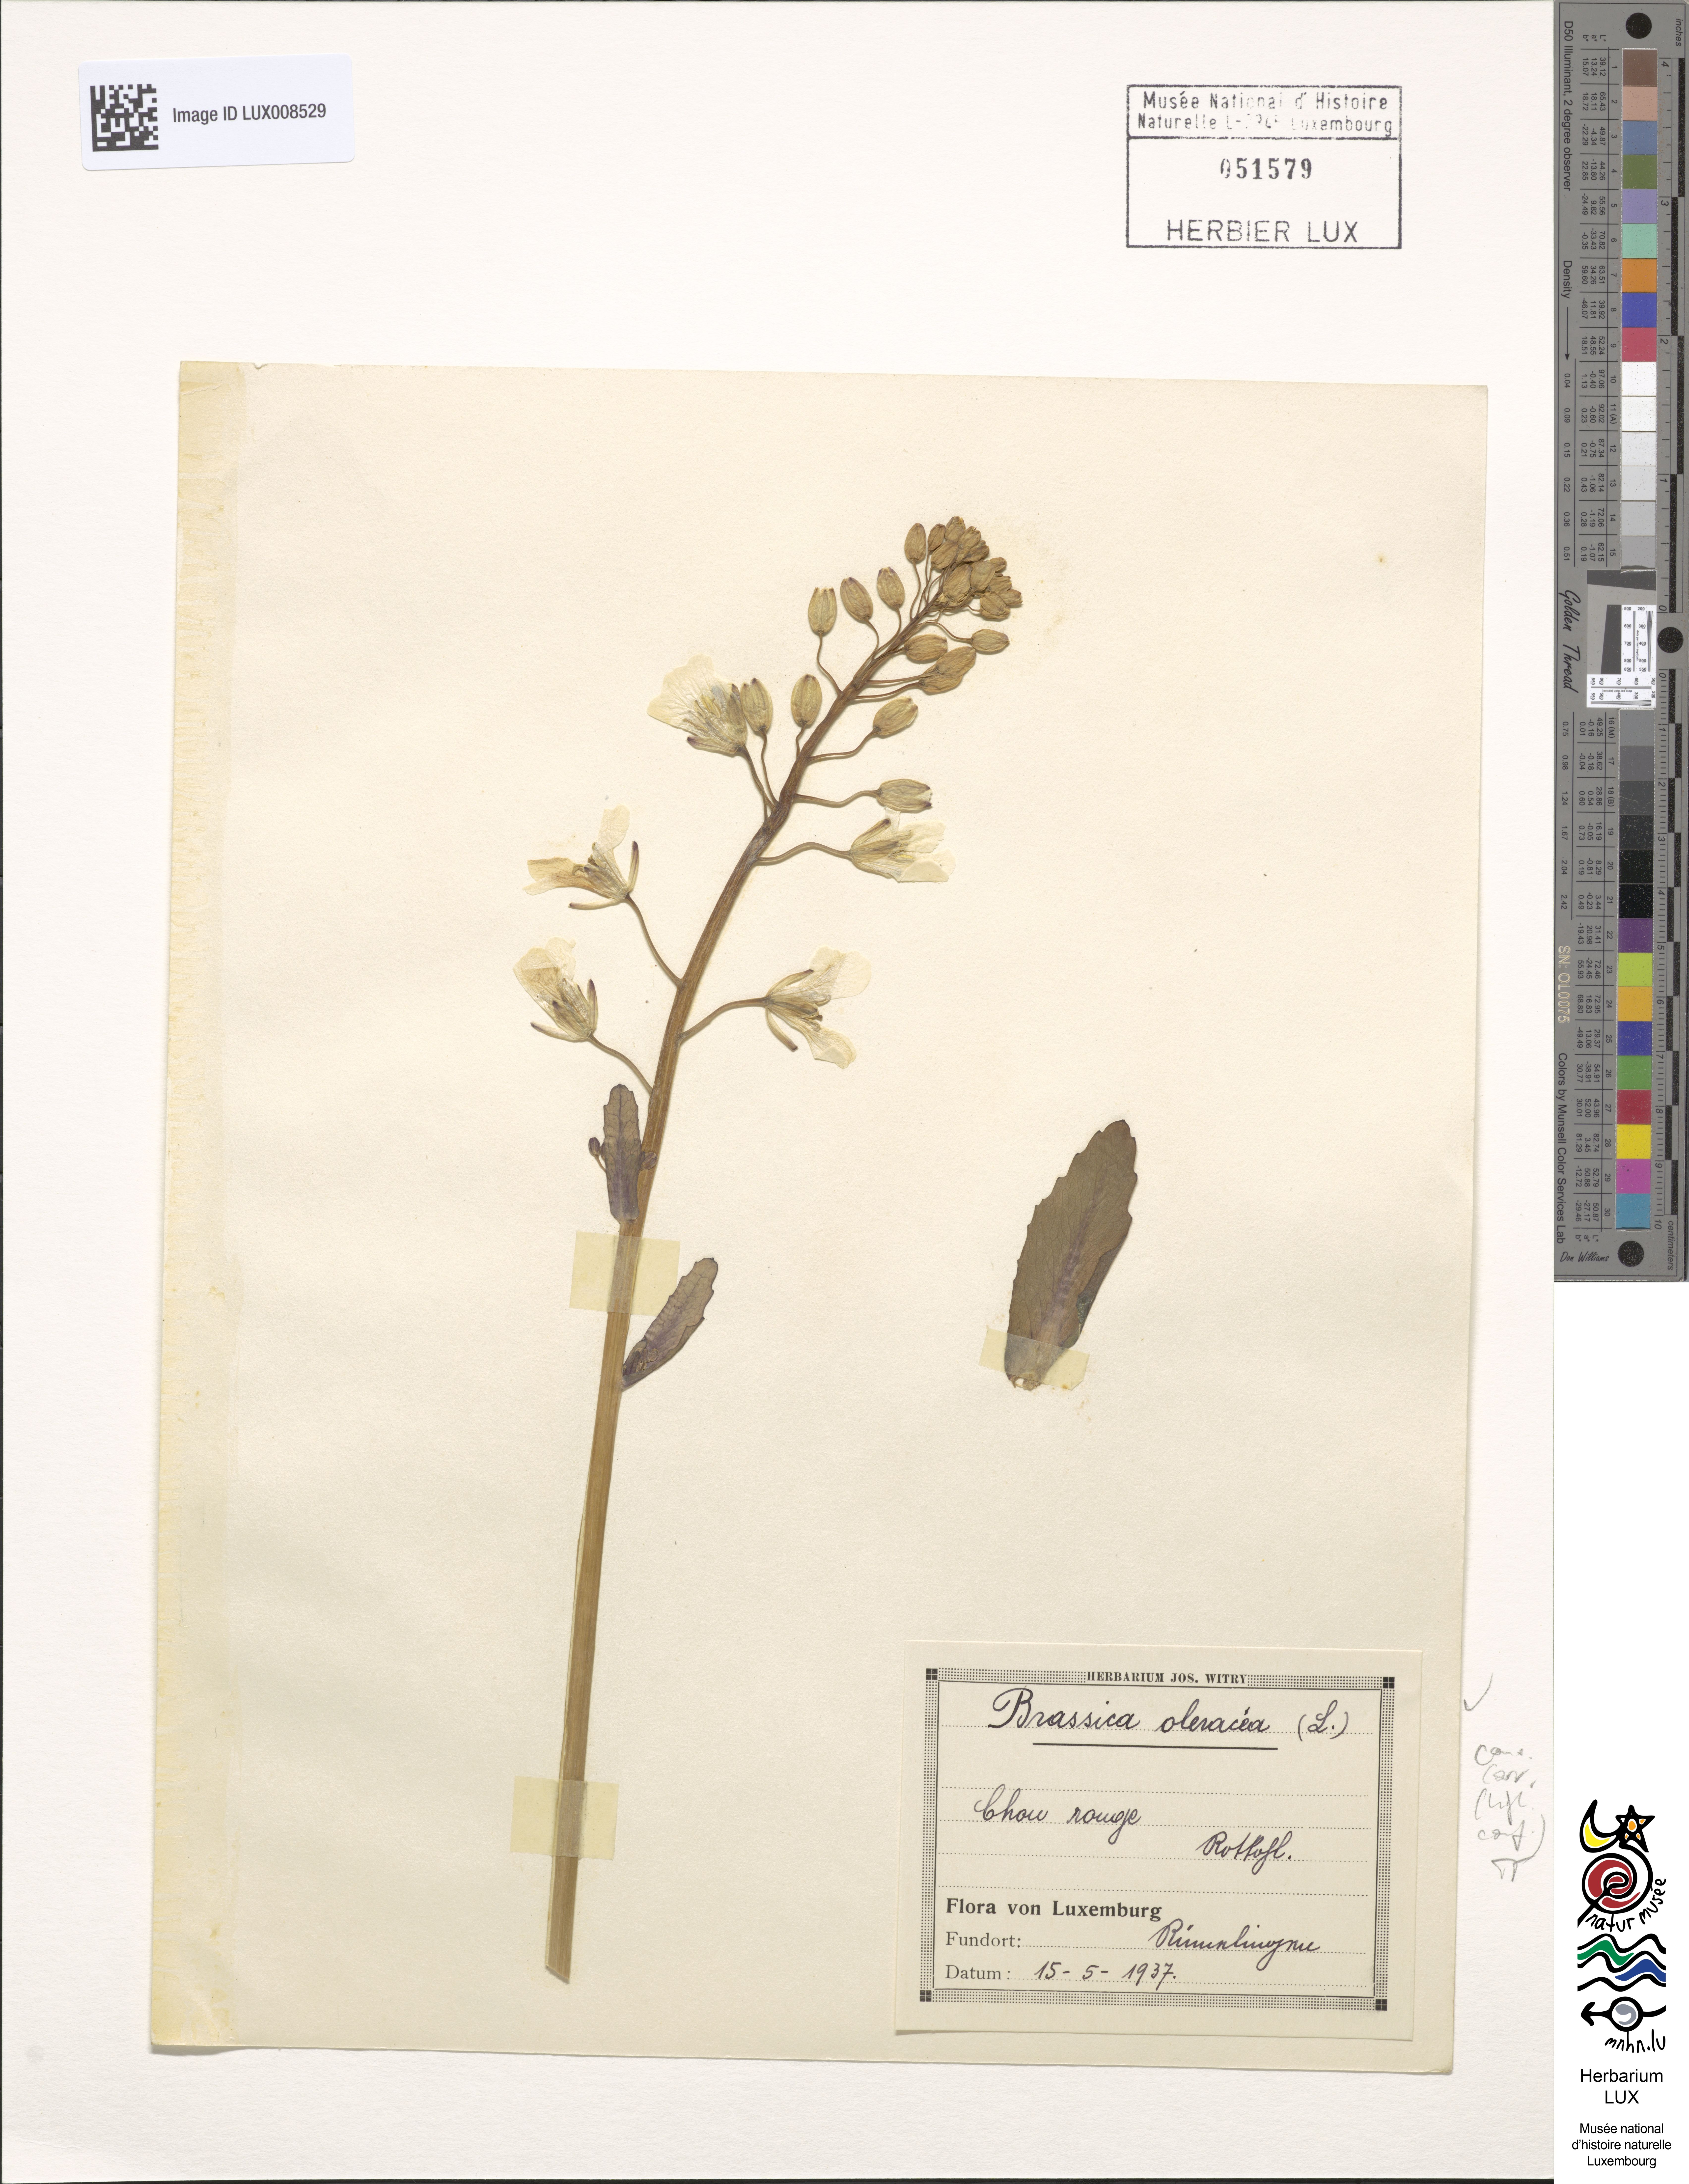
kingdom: Plantae
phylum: Tracheophyta
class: Magnoliopsida
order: Brassicales
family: Brassicaceae
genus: Brassica
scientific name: Brassica oleracea
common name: Cabbage
